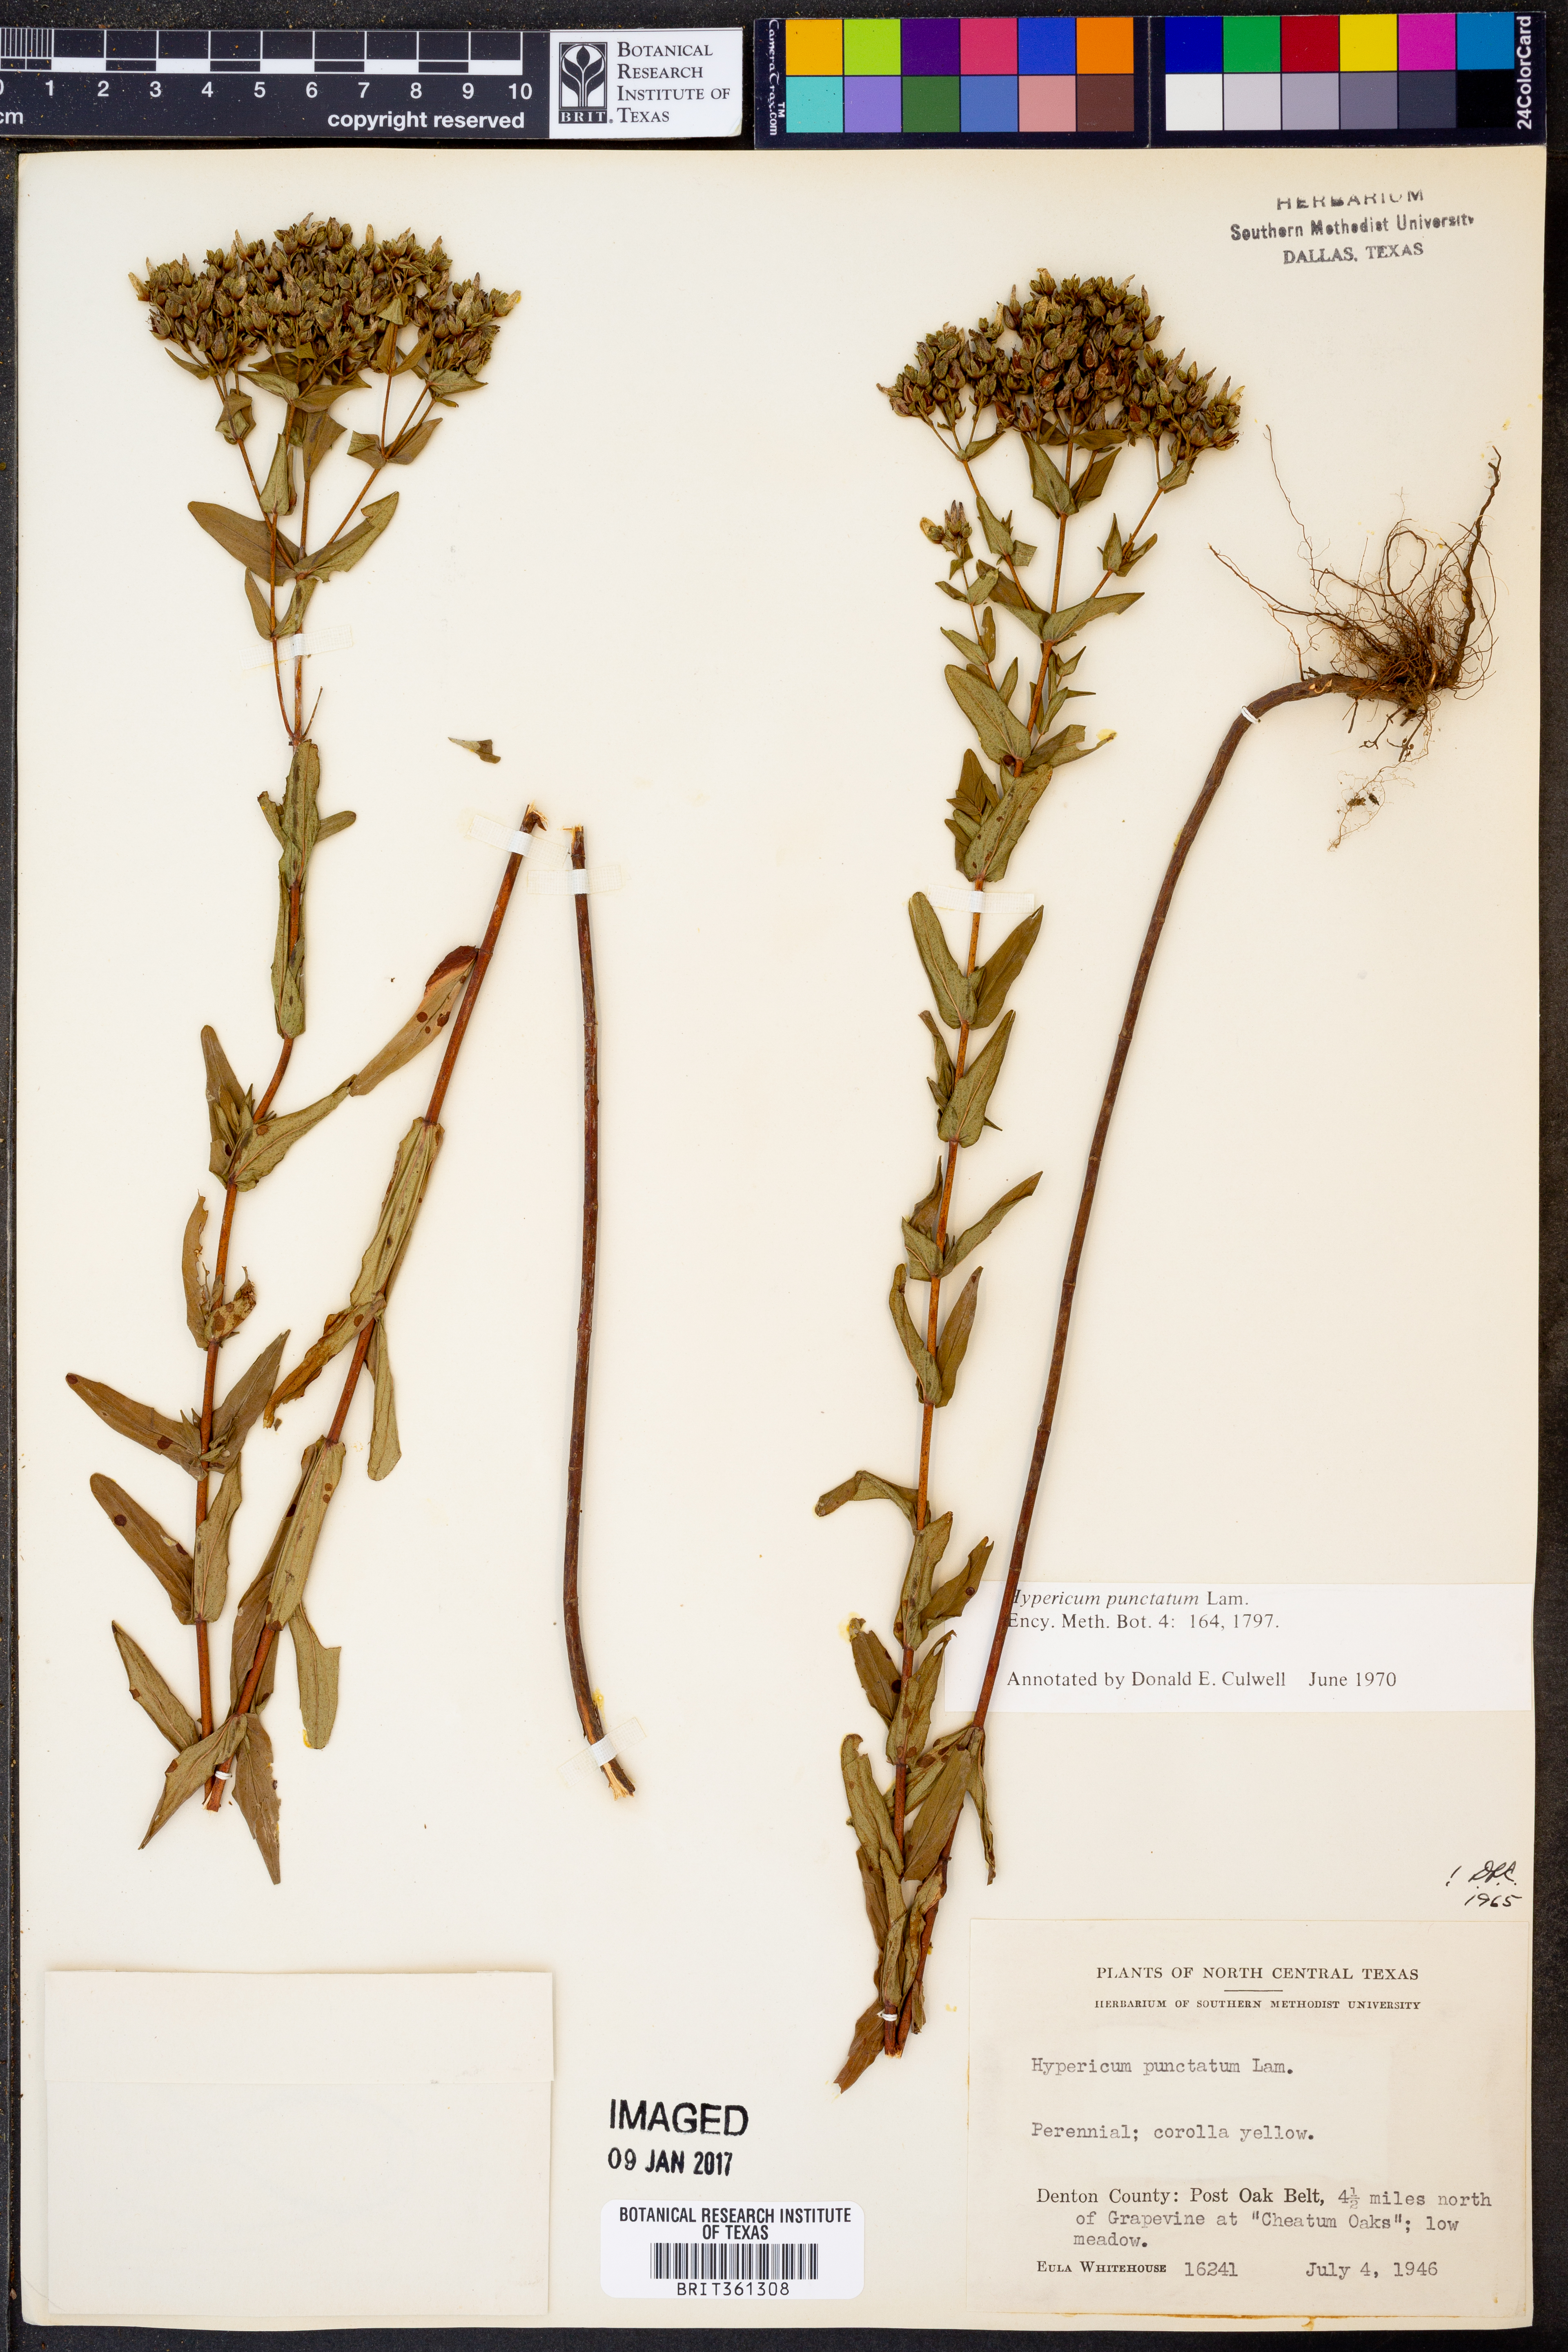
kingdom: Plantae
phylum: Tracheophyta
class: Magnoliopsida
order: Malpighiales
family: Hypericaceae
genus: Hypericum
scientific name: Hypericum punctatum
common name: Spotted st. john's-wort
